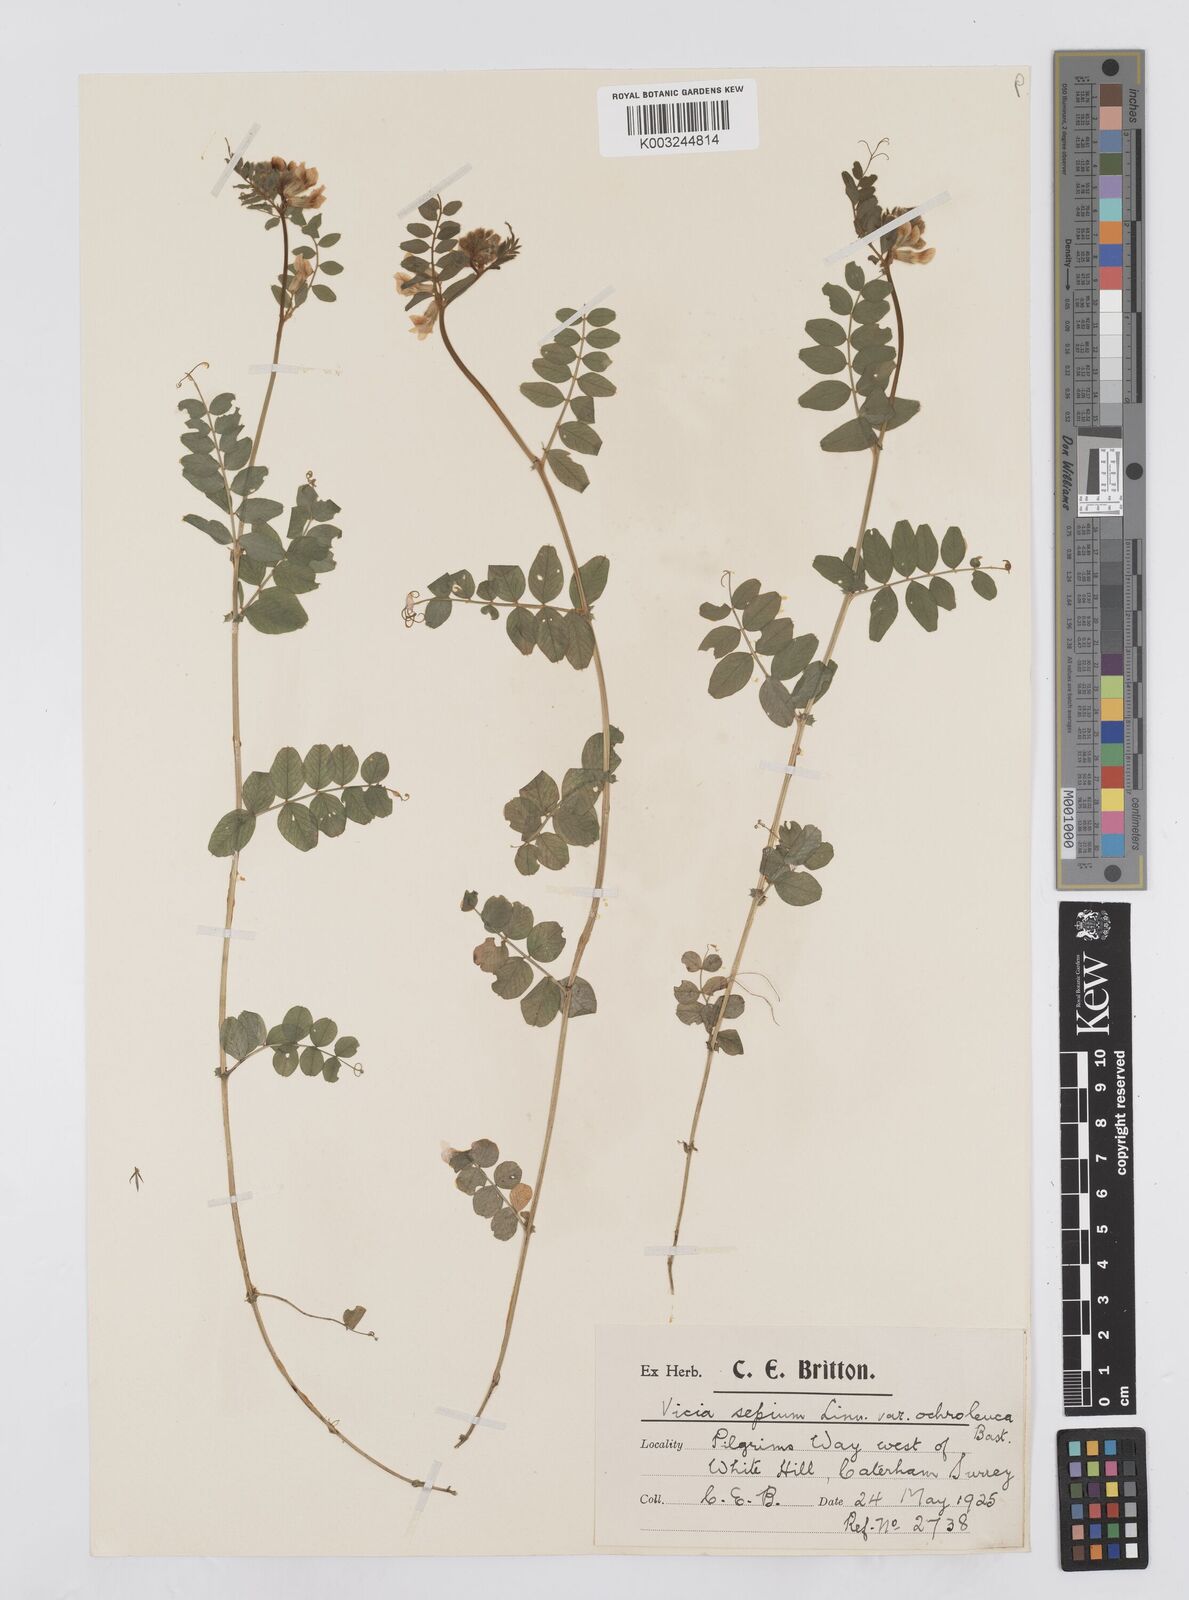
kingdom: Plantae
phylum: Tracheophyta
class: Magnoliopsida
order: Fabales
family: Fabaceae
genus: Vicia
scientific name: Vicia sepium
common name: Bush vetch
